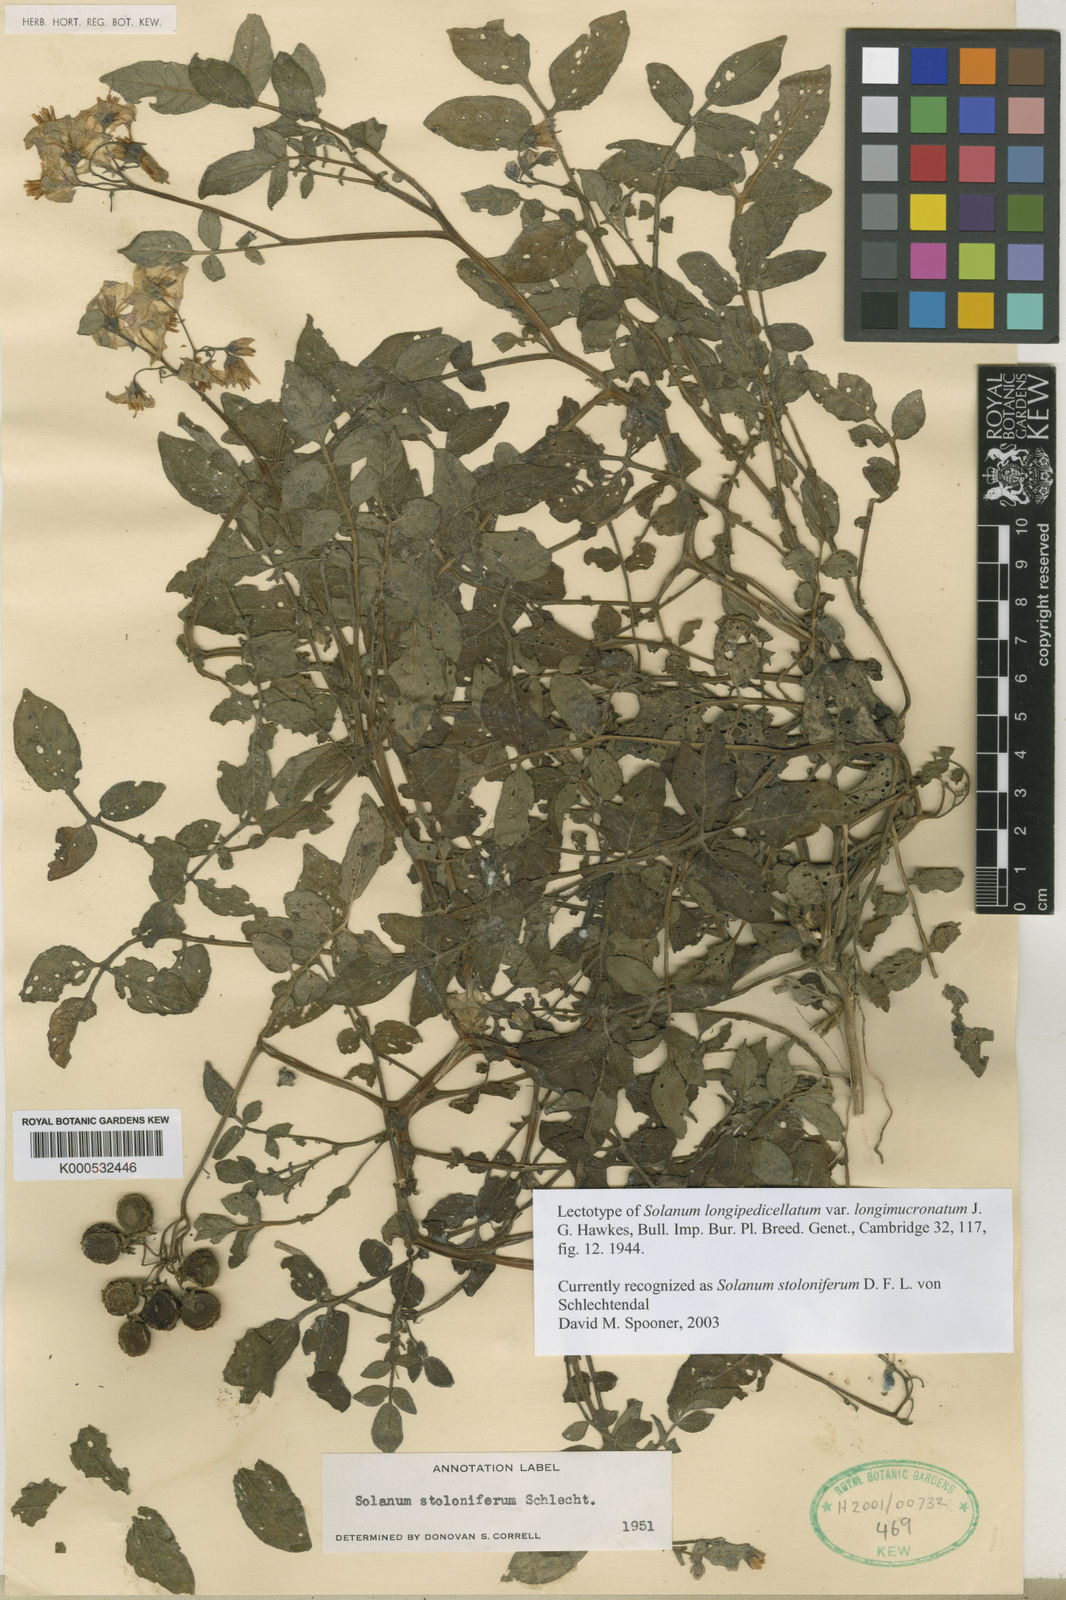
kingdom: Plantae
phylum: Tracheophyta
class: Magnoliopsida
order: Solanales
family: Solanaceae
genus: Solanum
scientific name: Solanum
